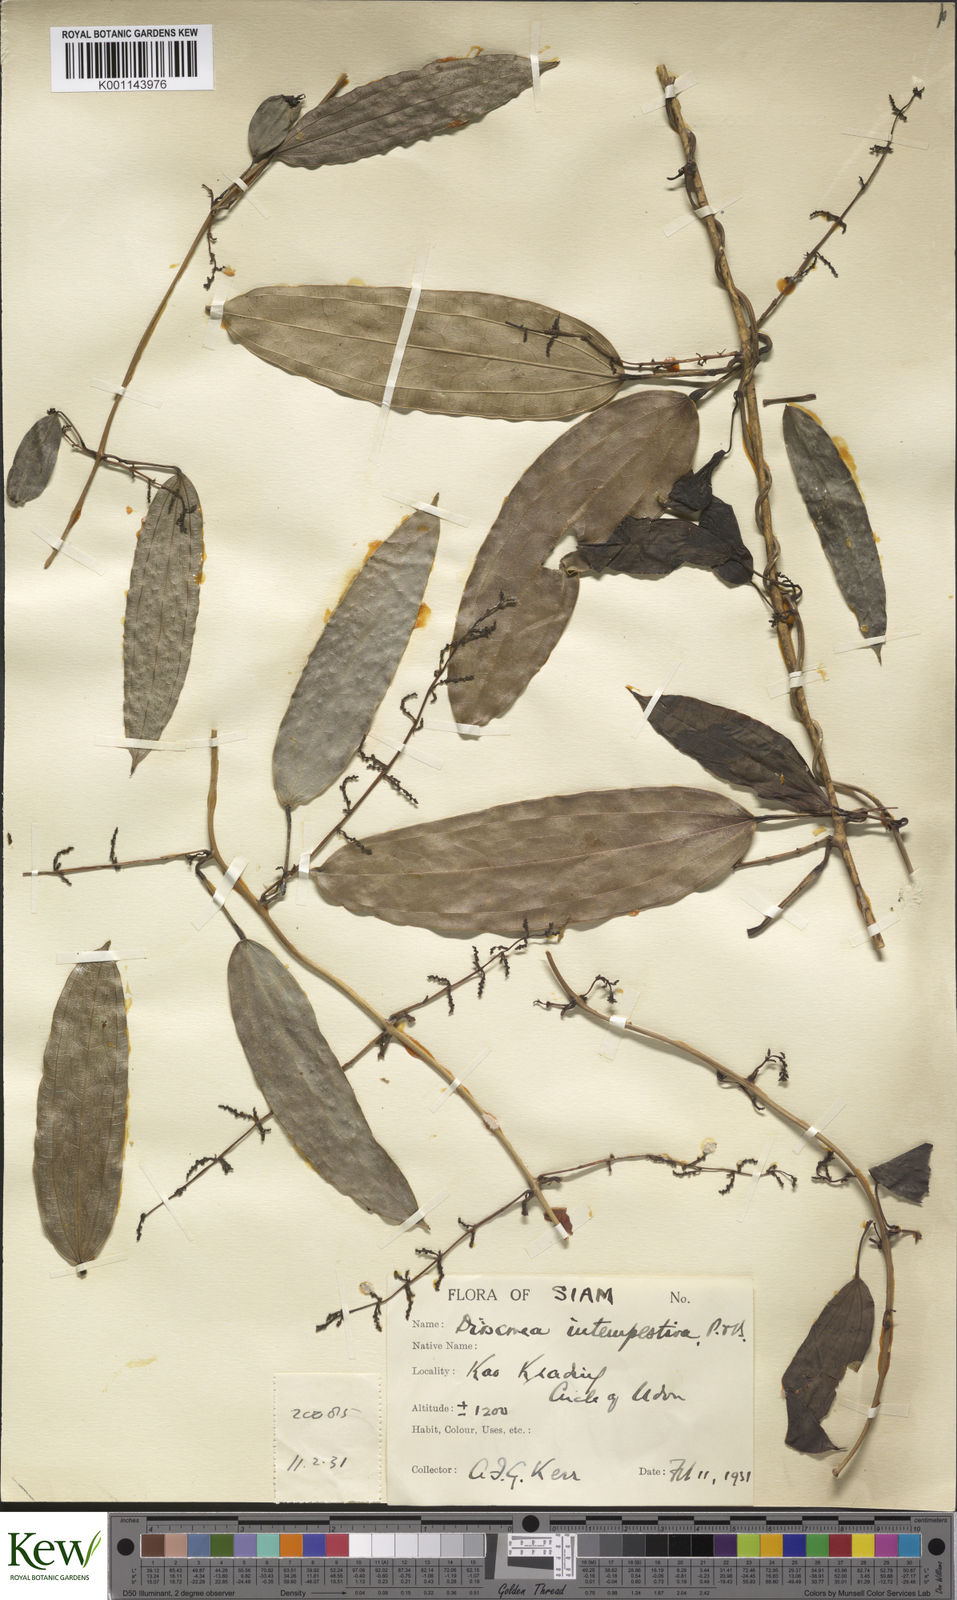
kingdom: Plantae
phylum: Tracheophyta
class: Liliopsida
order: Dioscoreales
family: Dioscoreaceae
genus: Dioscorea
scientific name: Dioscorea cirrhosa
